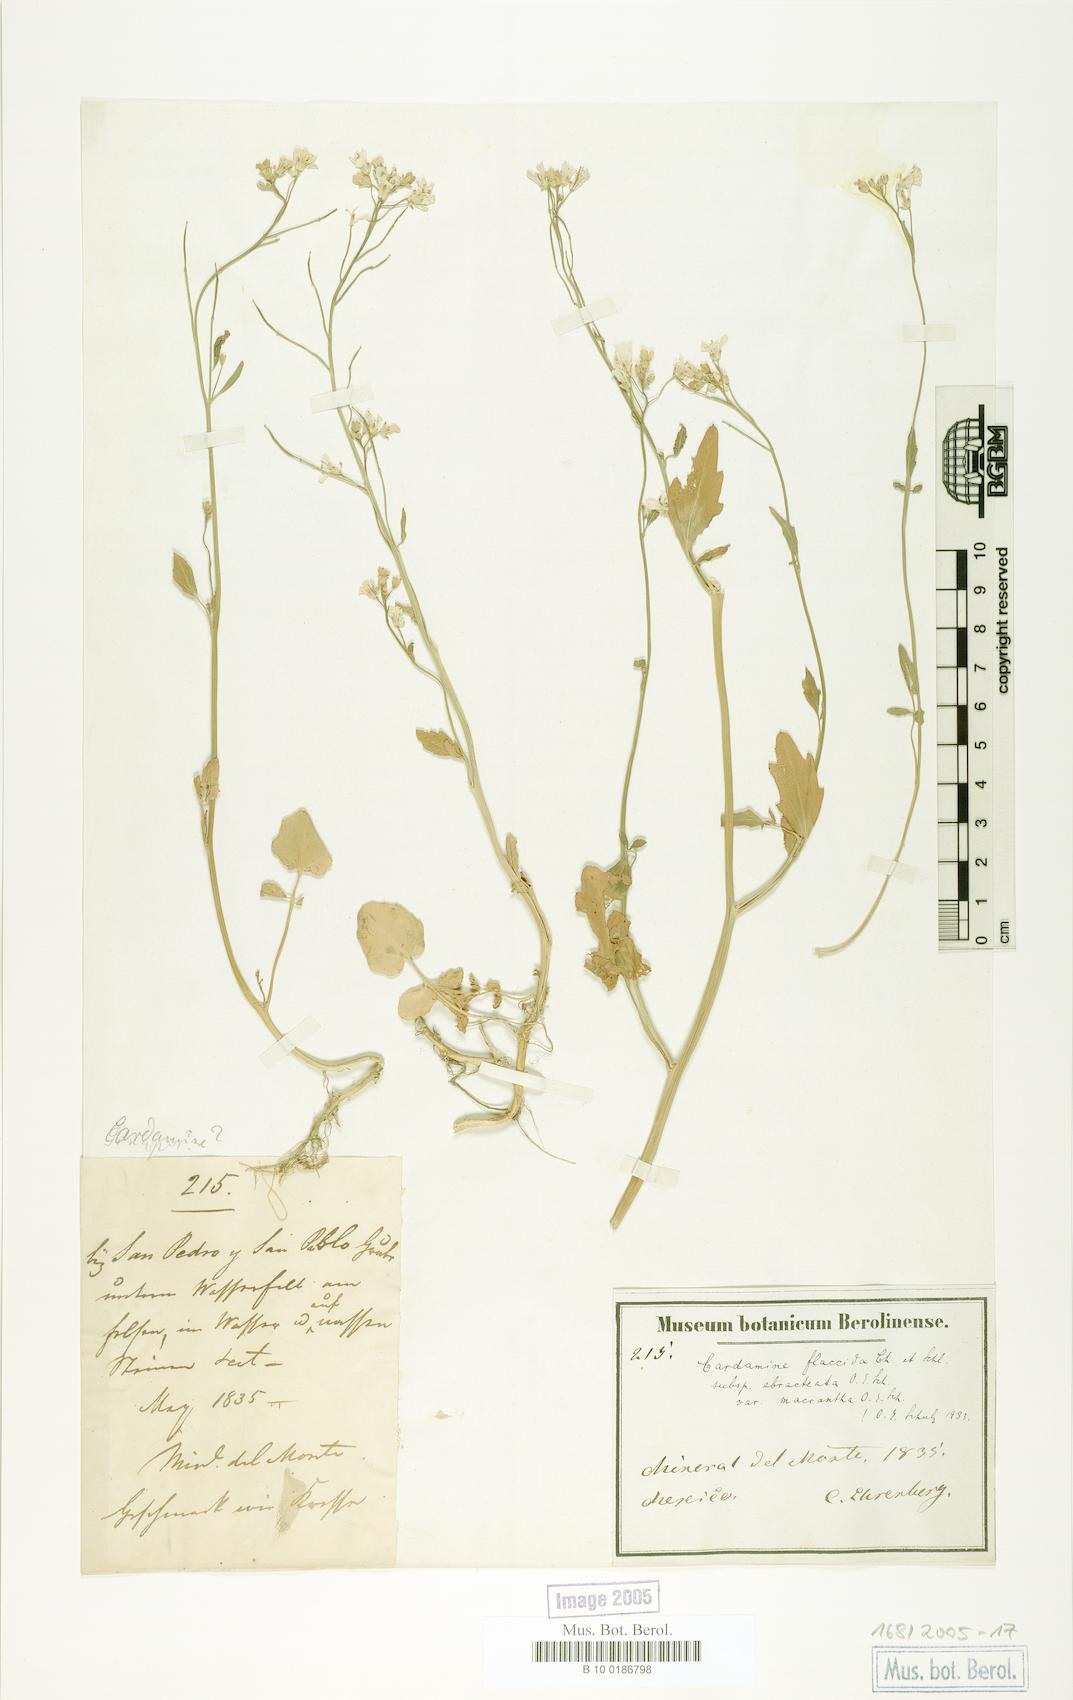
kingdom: Plantae
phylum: Tracheophyta
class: Magnoliopsida
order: Brassicales
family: Brassicaceae
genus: Cardamine
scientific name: Cardamine bonariensis
